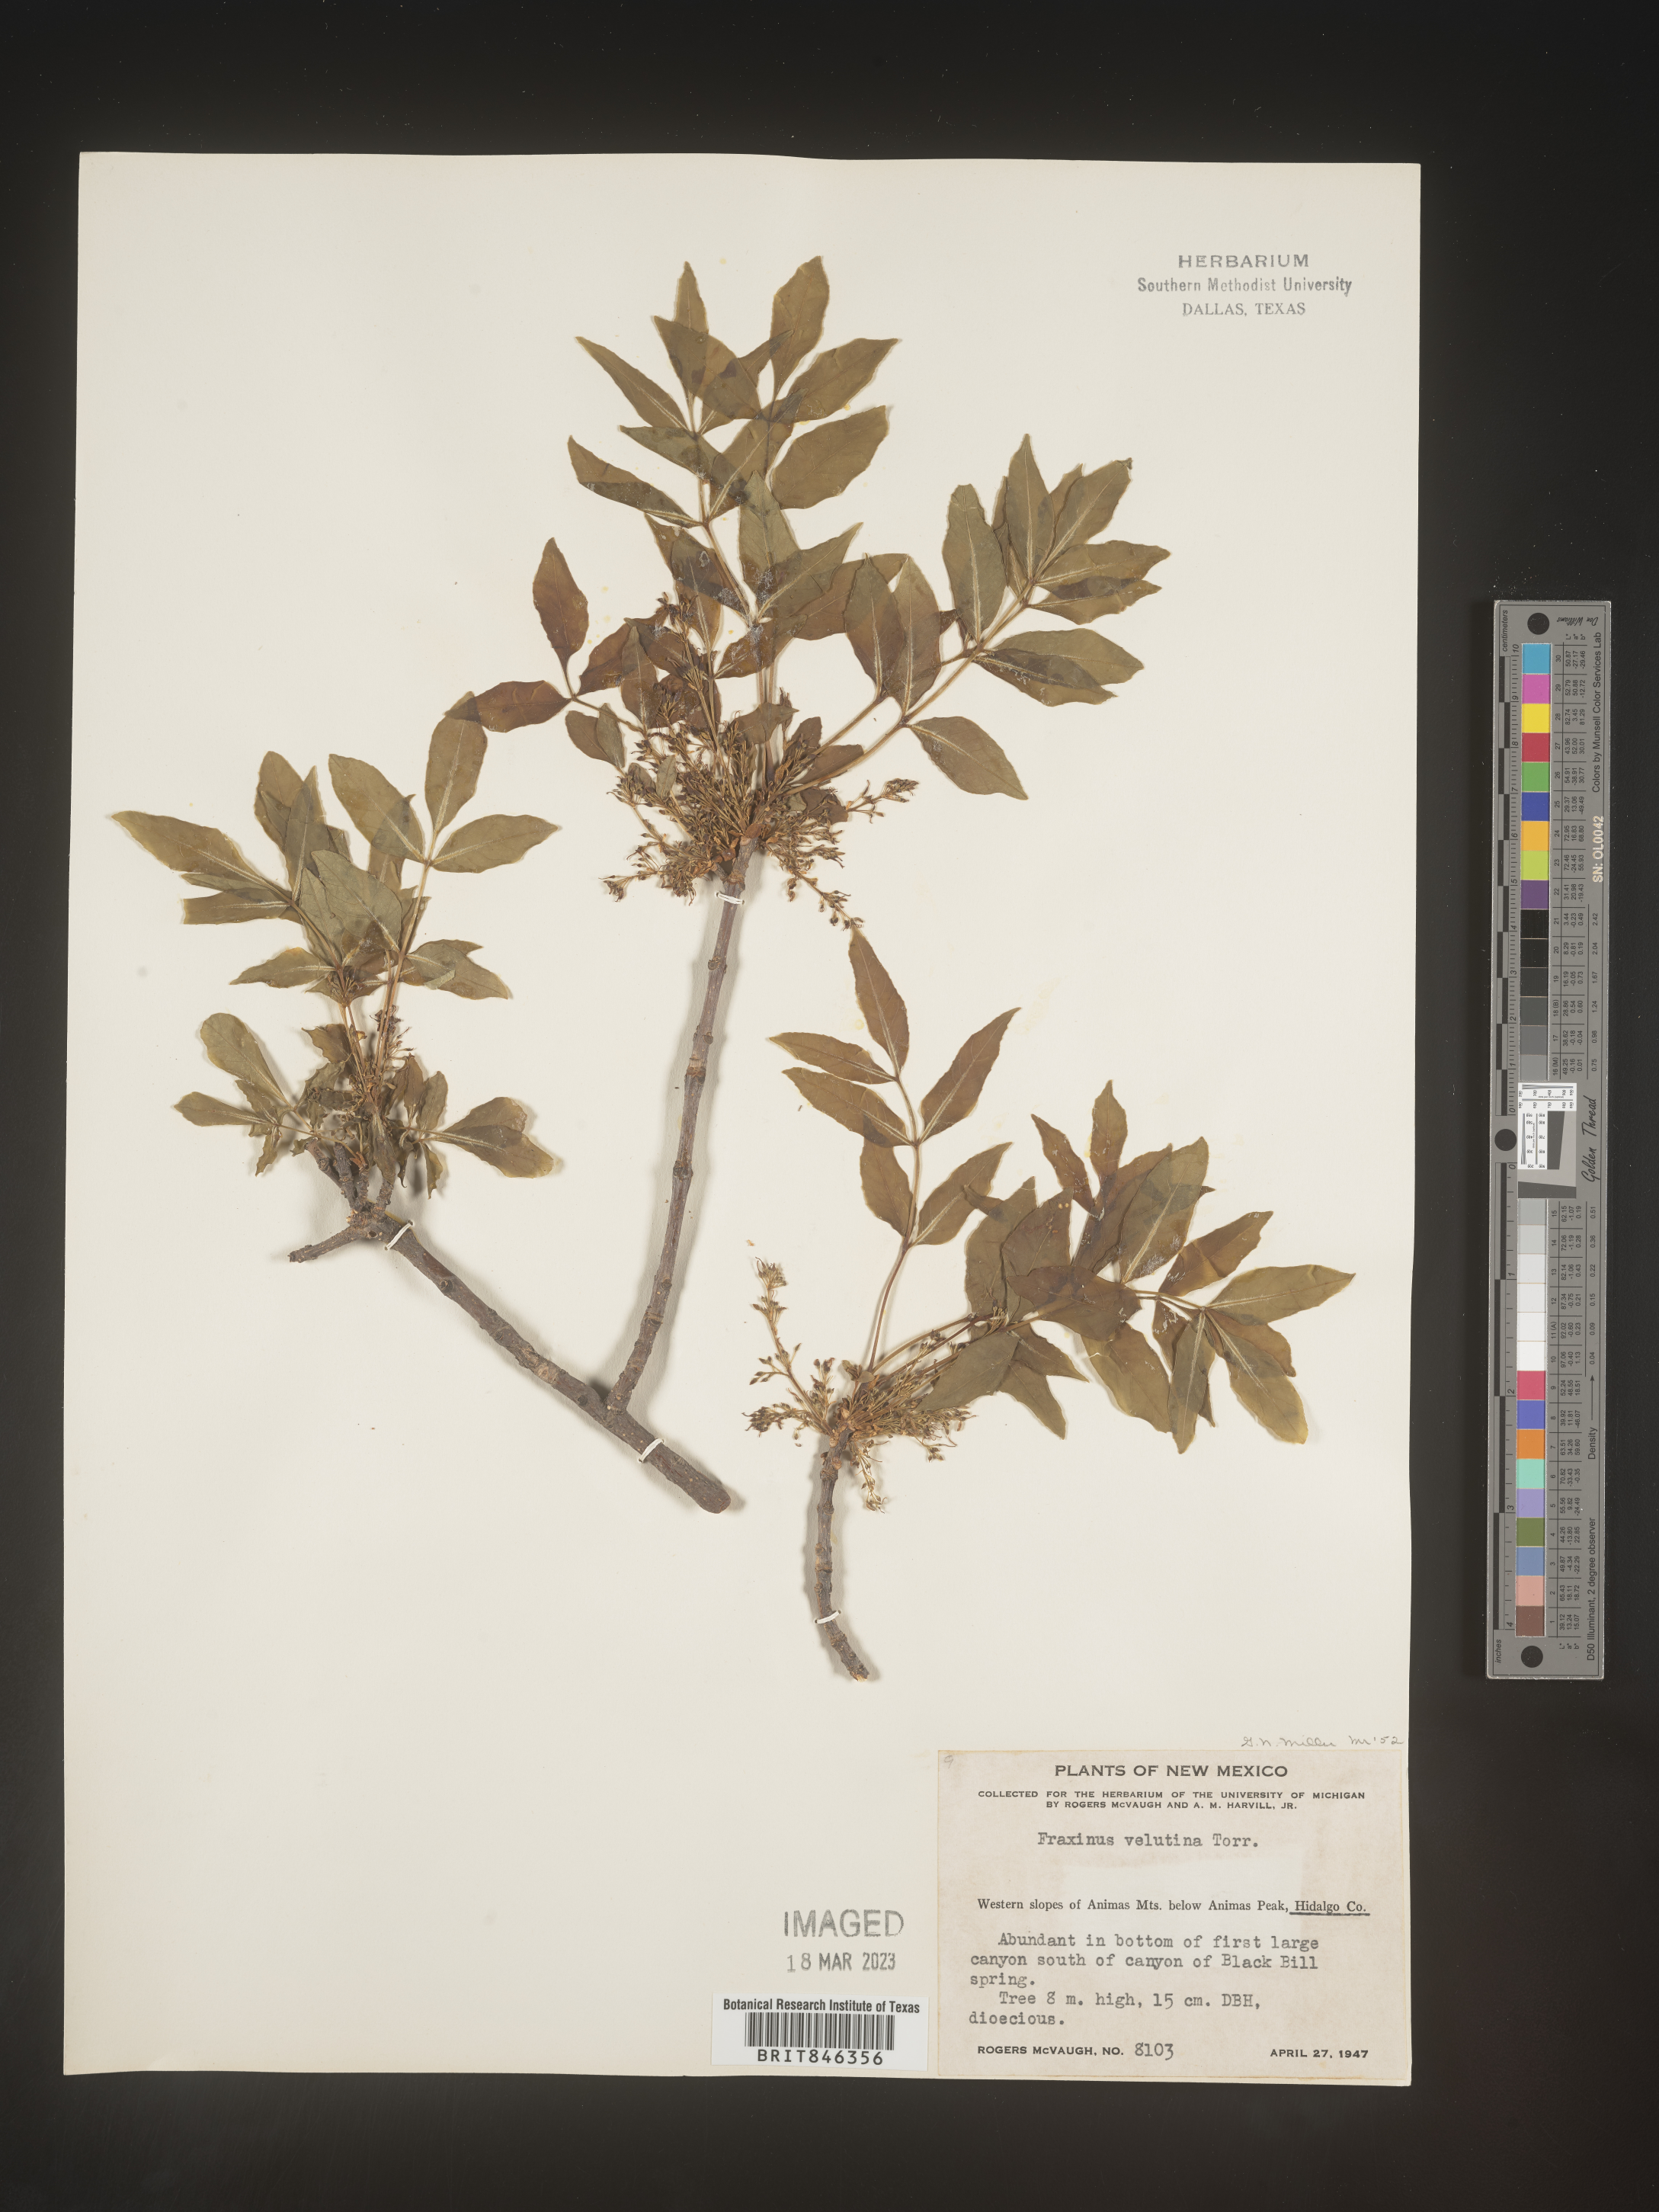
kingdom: Plantae
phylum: Tracheophyta
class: Magnoliopsida
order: Lamiales
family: Oleaceae
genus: Fraxinus
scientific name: Fraxinus velutina
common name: Arizon ash
